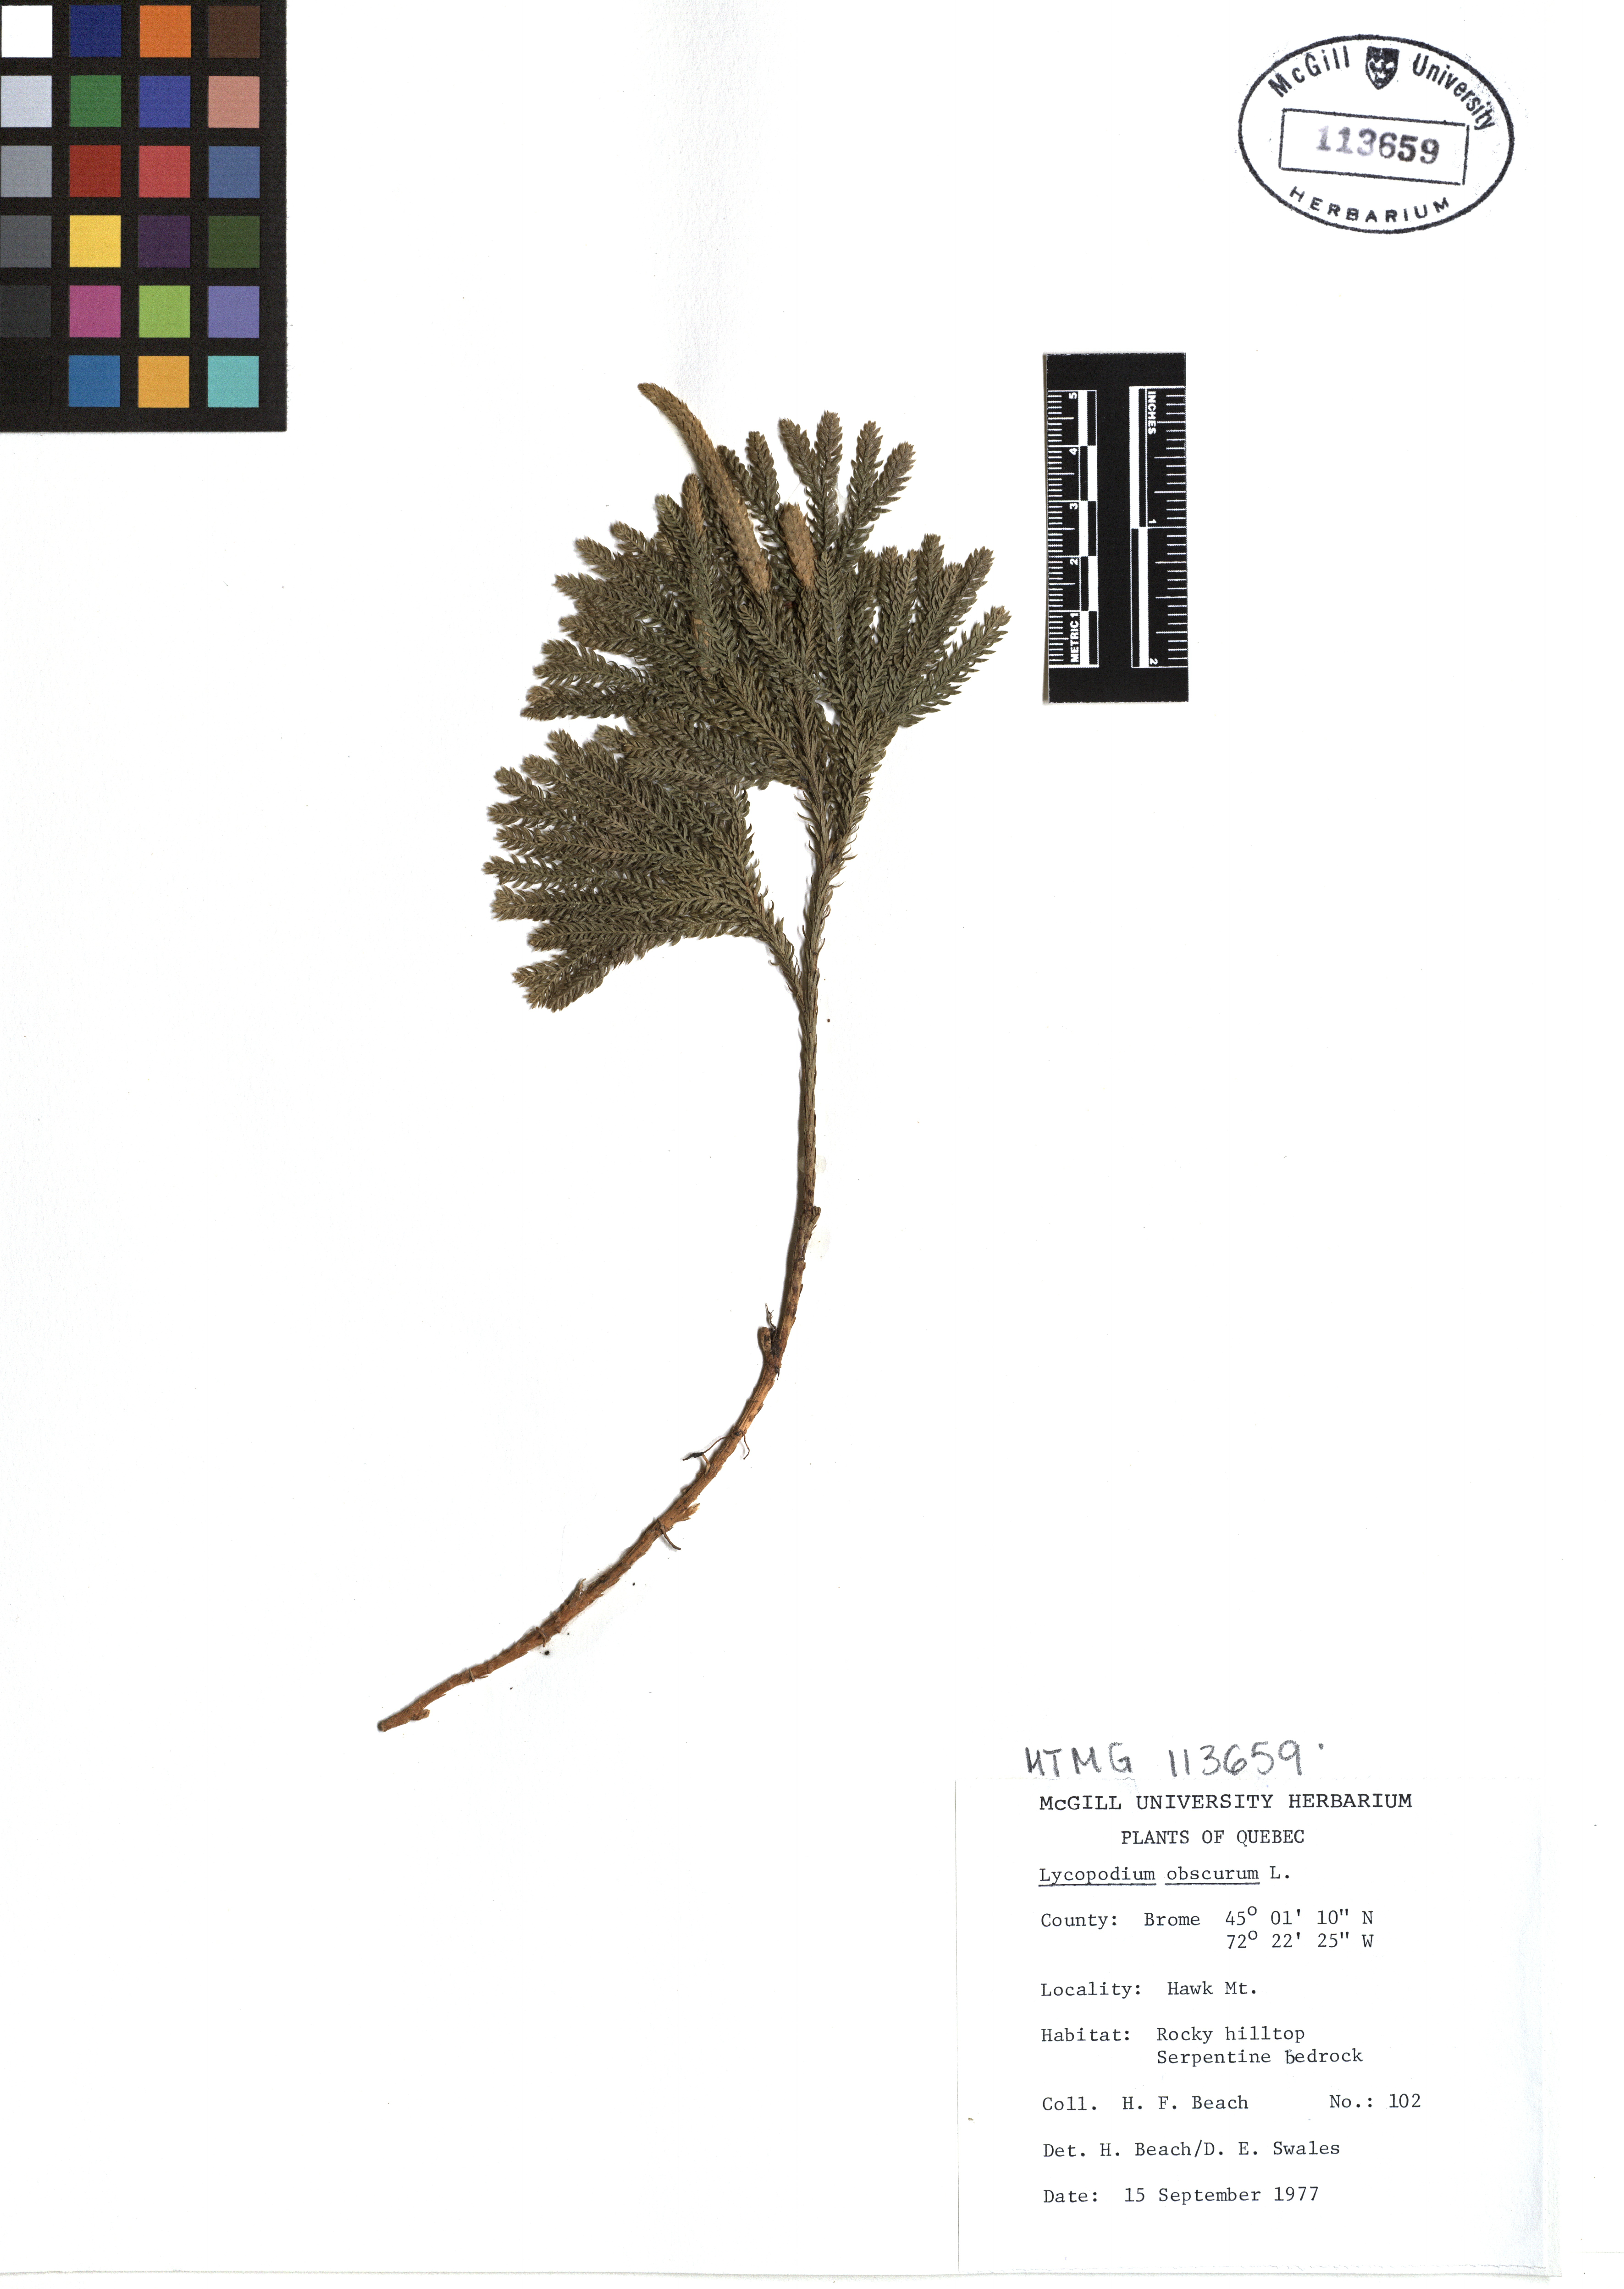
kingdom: Plantae
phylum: Tracheophyta
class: Lycopodiopsida
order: Lycopodiales
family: Lycopodiaceae
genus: Dendrolycopodium
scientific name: Dendrolycopodium obscurum
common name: Common ground-pine
